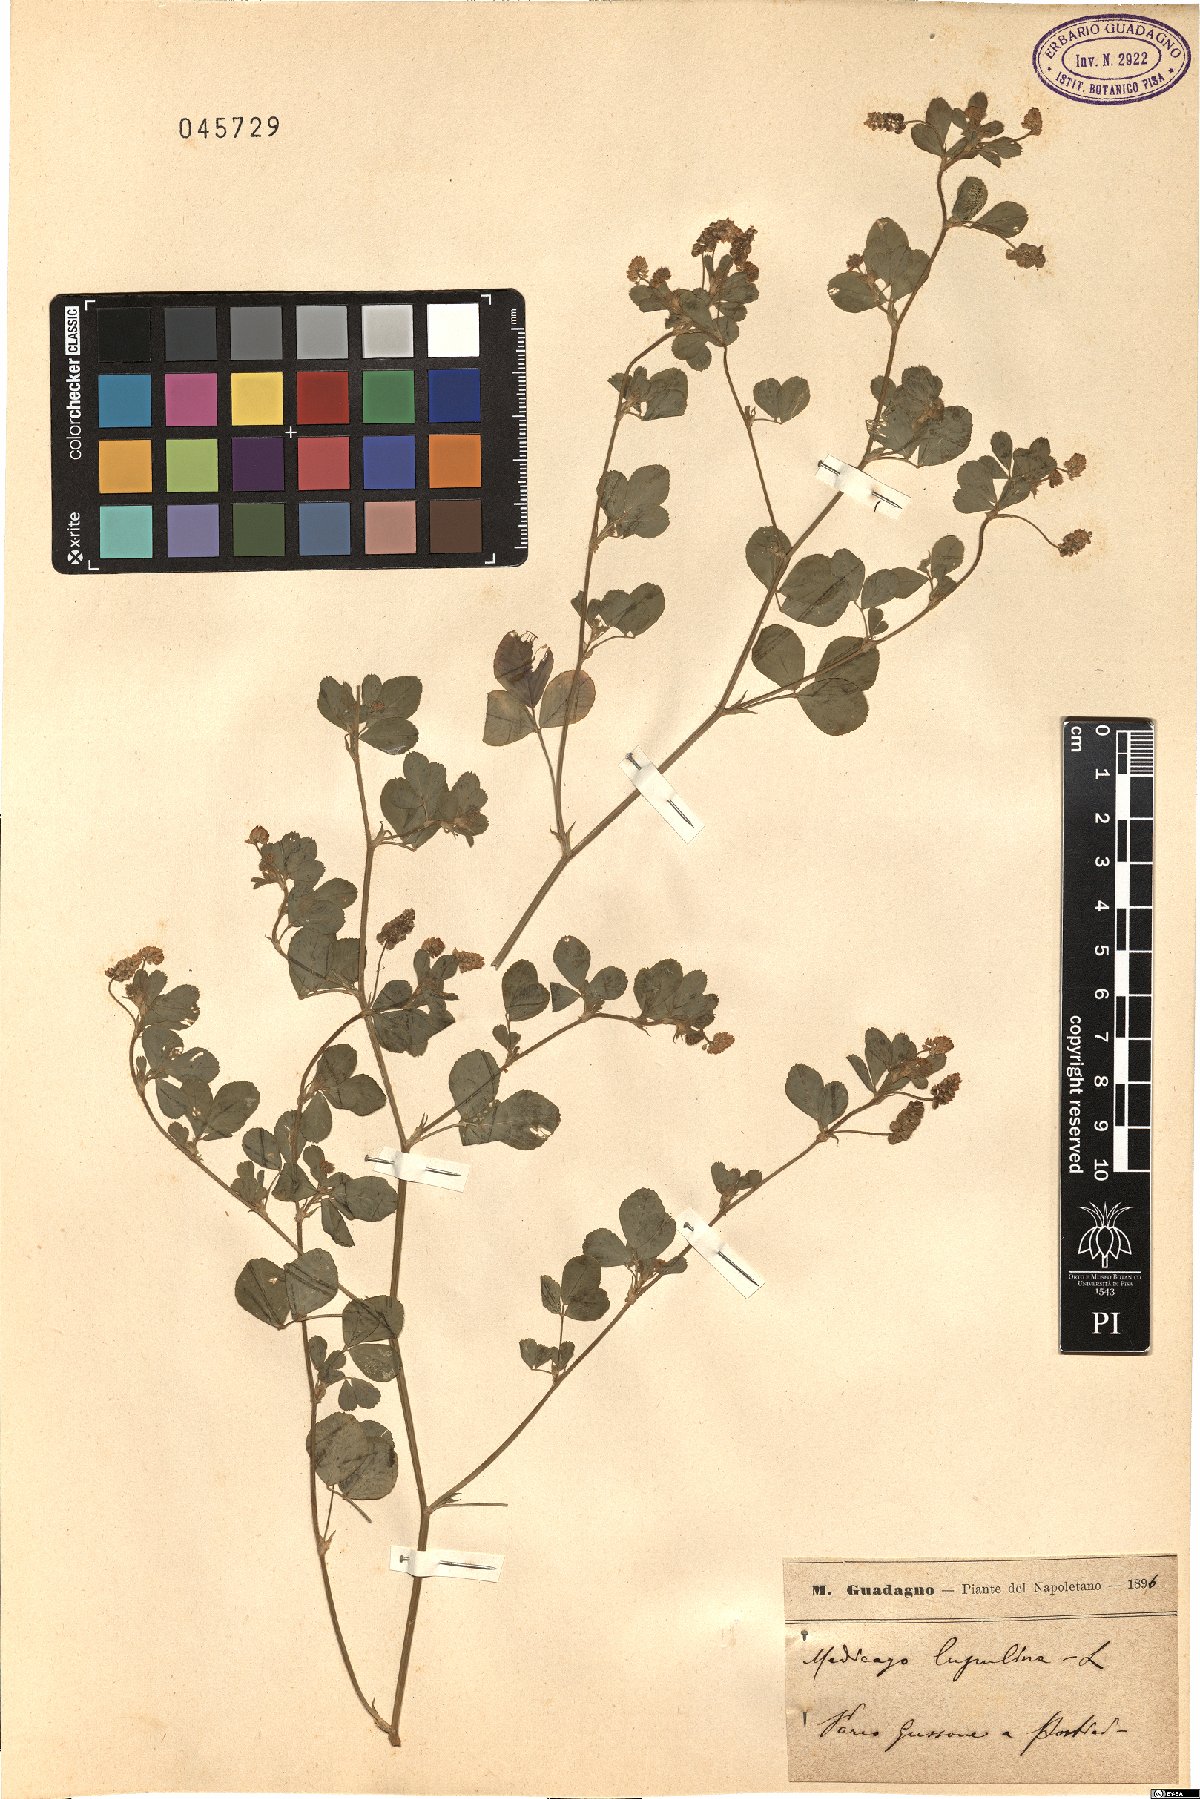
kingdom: Plantae
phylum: Tracheophyta
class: Magnoliopsida
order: Fabales
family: Fabaceae
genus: Medicago
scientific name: Medicago lupulina
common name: Black medick
